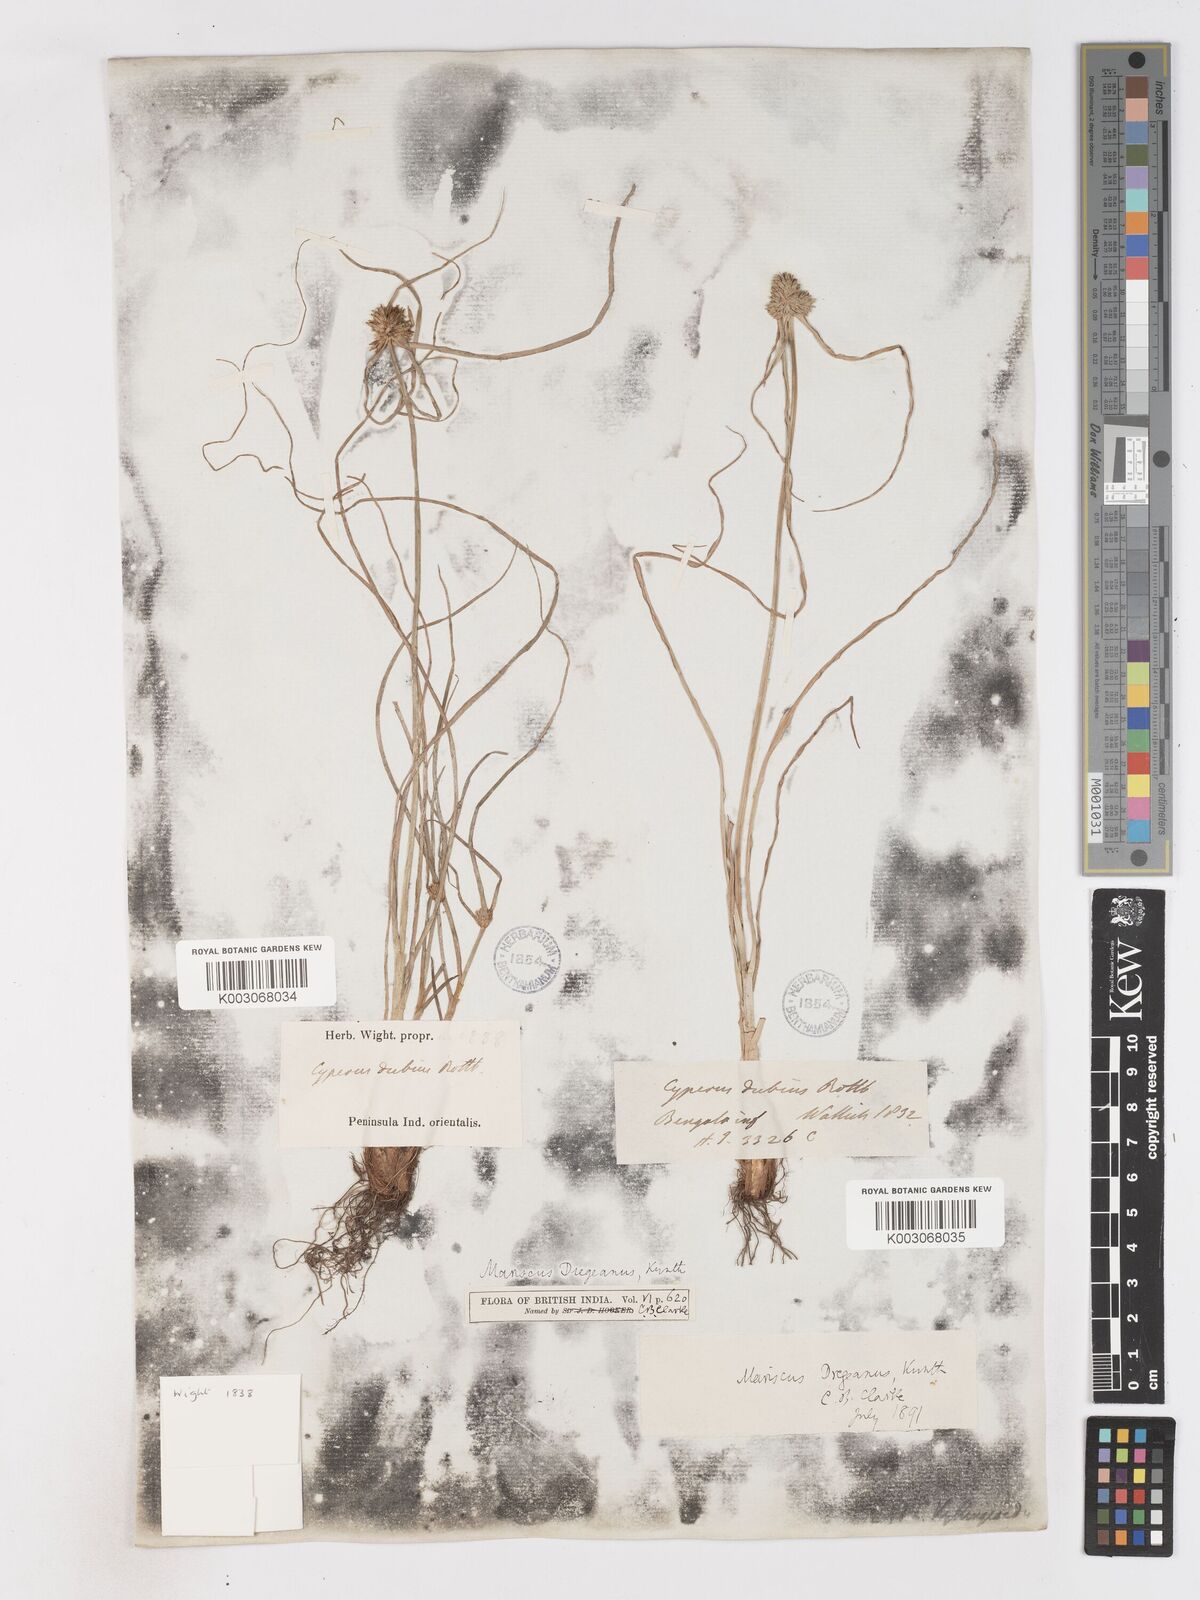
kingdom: Plantae
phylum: Tracheophyta
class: Liliopsida
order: Poales
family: Cyperaceae
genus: Cyperus
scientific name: Cyperus dubius
